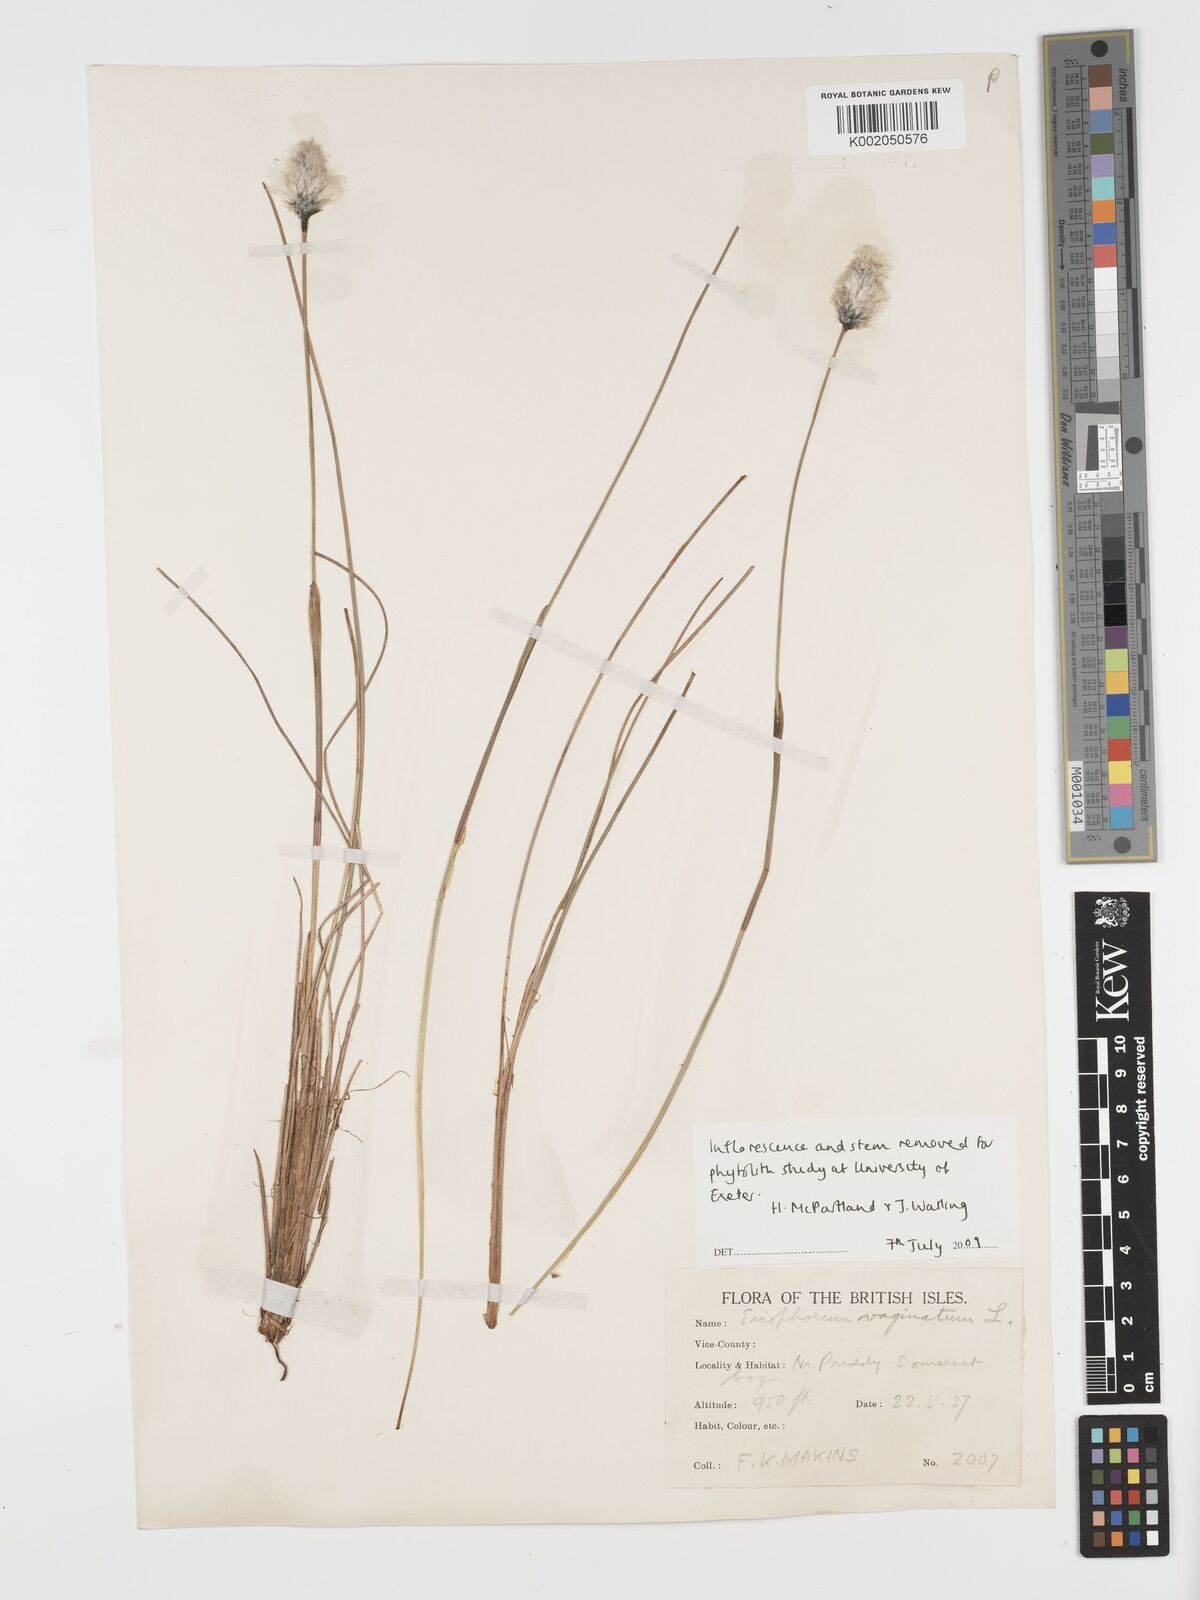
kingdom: Plantae
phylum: Tracheophyta
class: Liliopsida
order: Poales
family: Cyperaceae
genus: Eriophorum
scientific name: Eriophorum vaginatum
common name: Hare's-tail cottongrass
